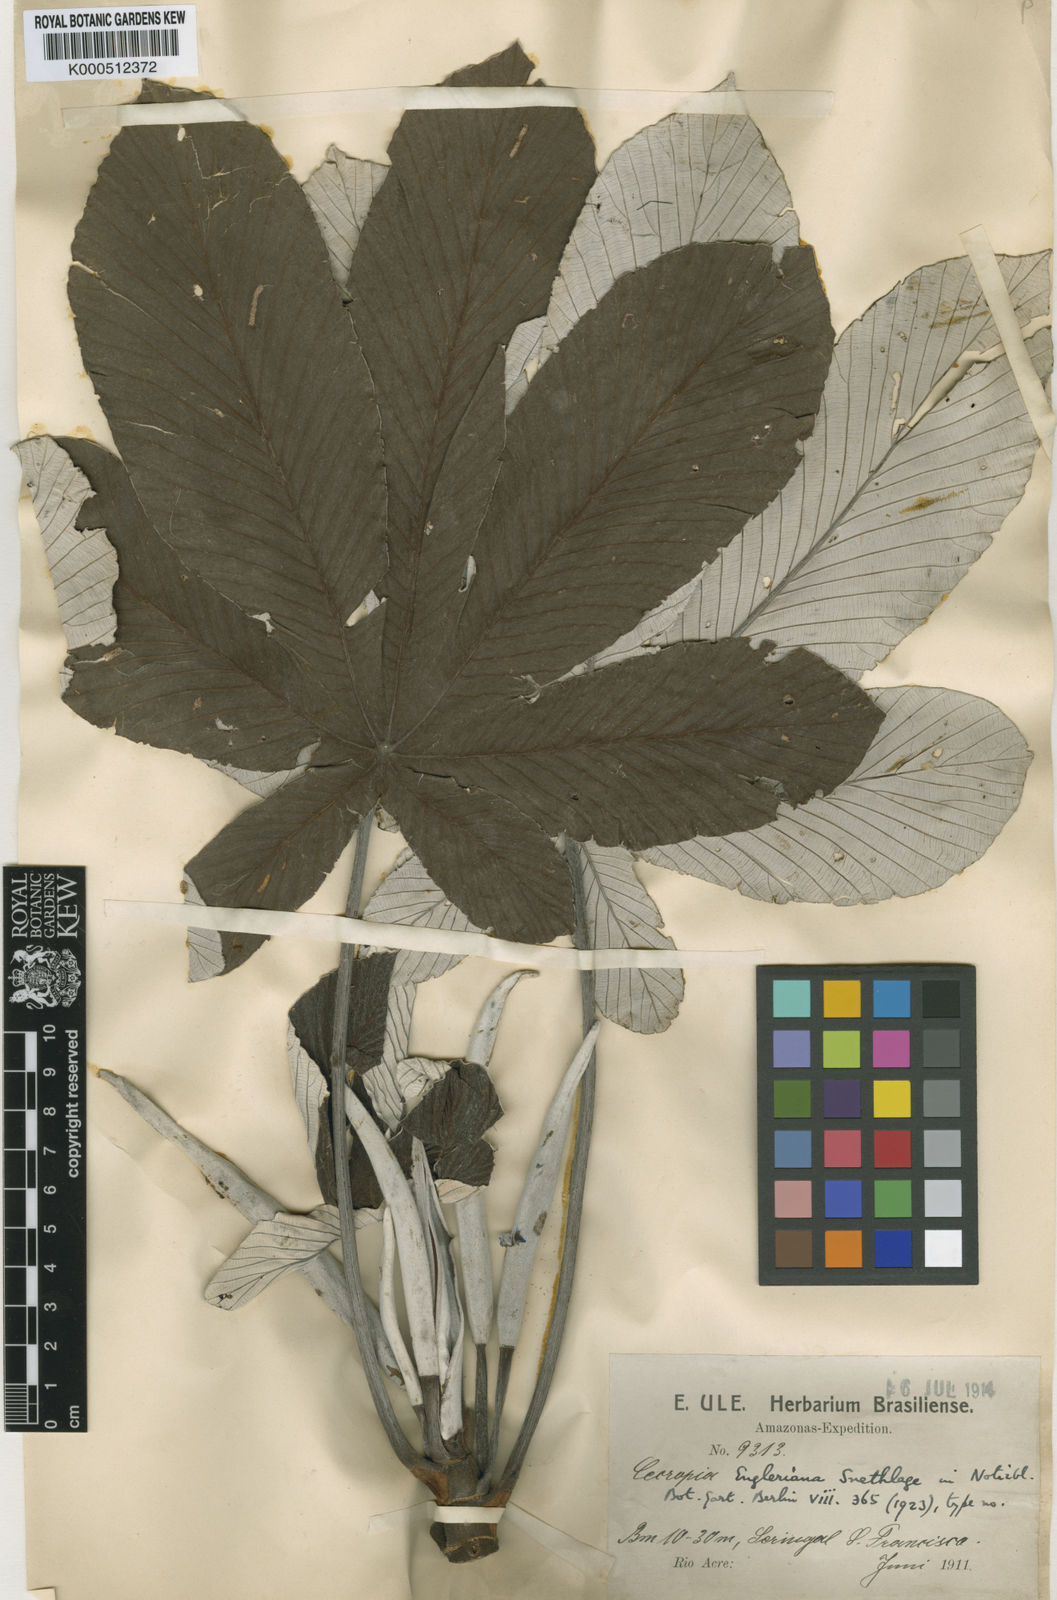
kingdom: Plantae
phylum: Tracheophyta
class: Magnoliopsida
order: Rosales
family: Urticaceae
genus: Cecropia
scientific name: Cecropia engleriana
